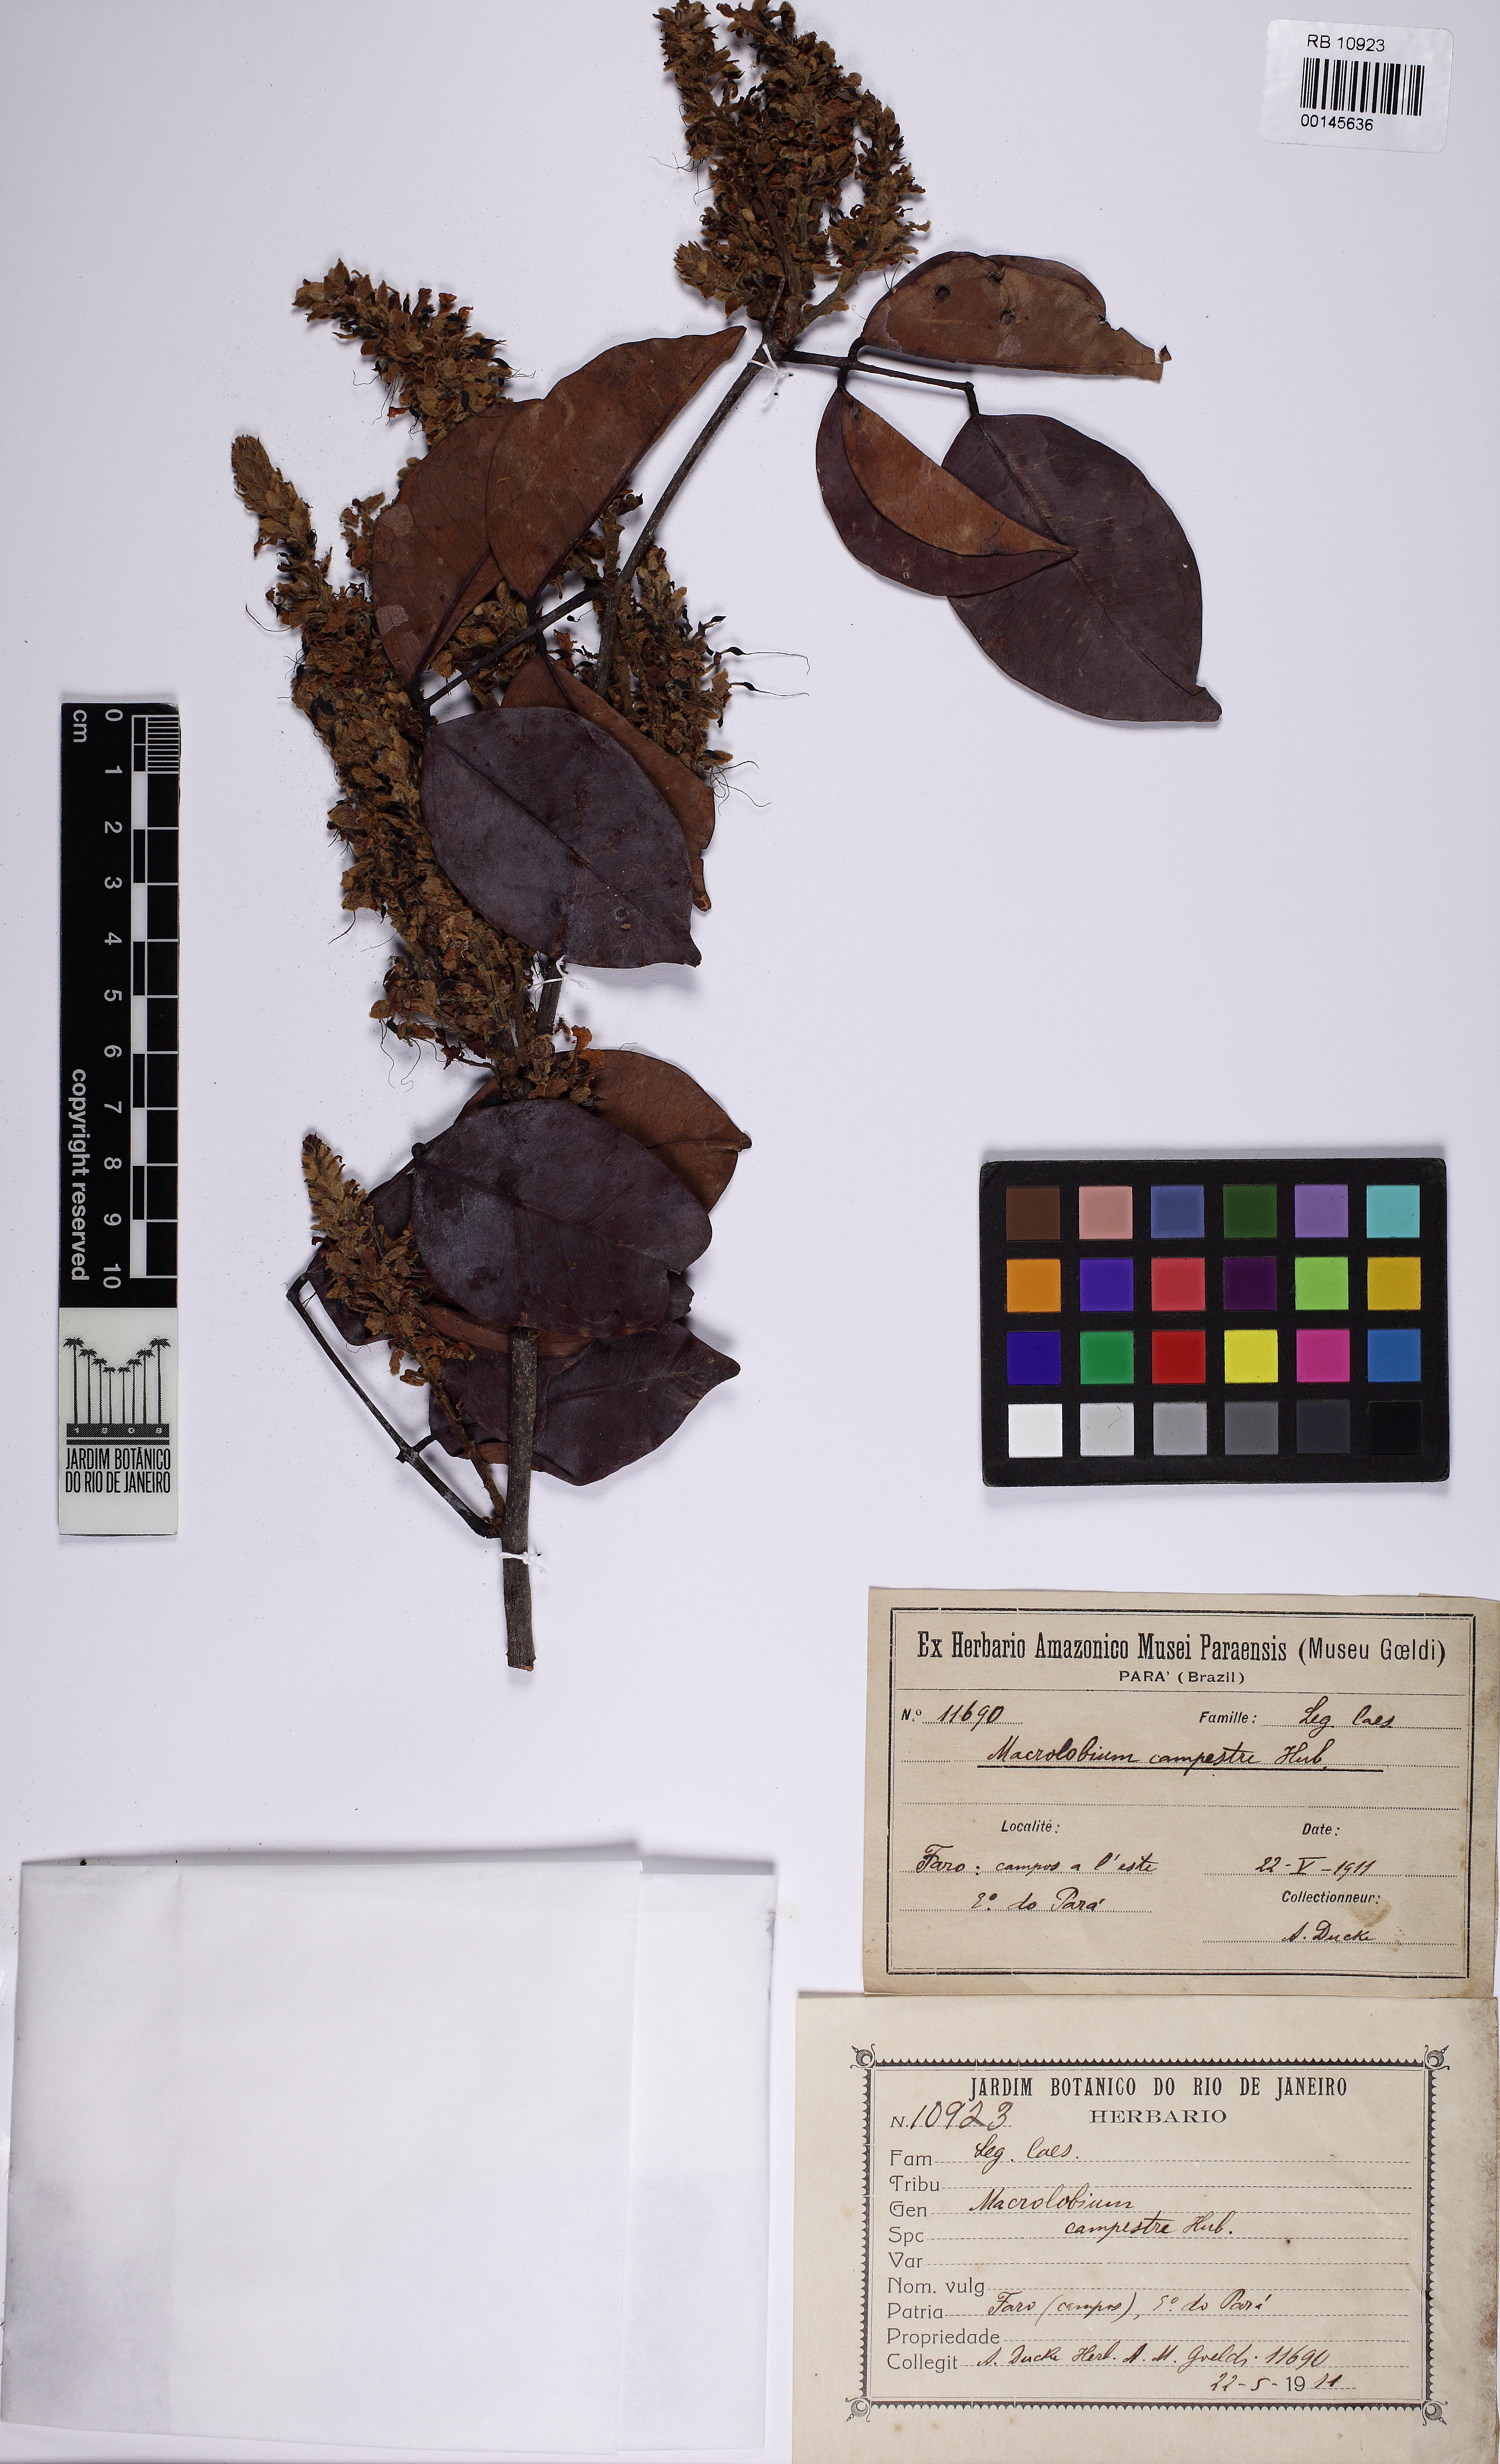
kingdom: Plantae
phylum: Tracheophyta
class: Magnoliopsida
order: Fabales
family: Fabaceae
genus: Macrolobium
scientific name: Macrolobium
